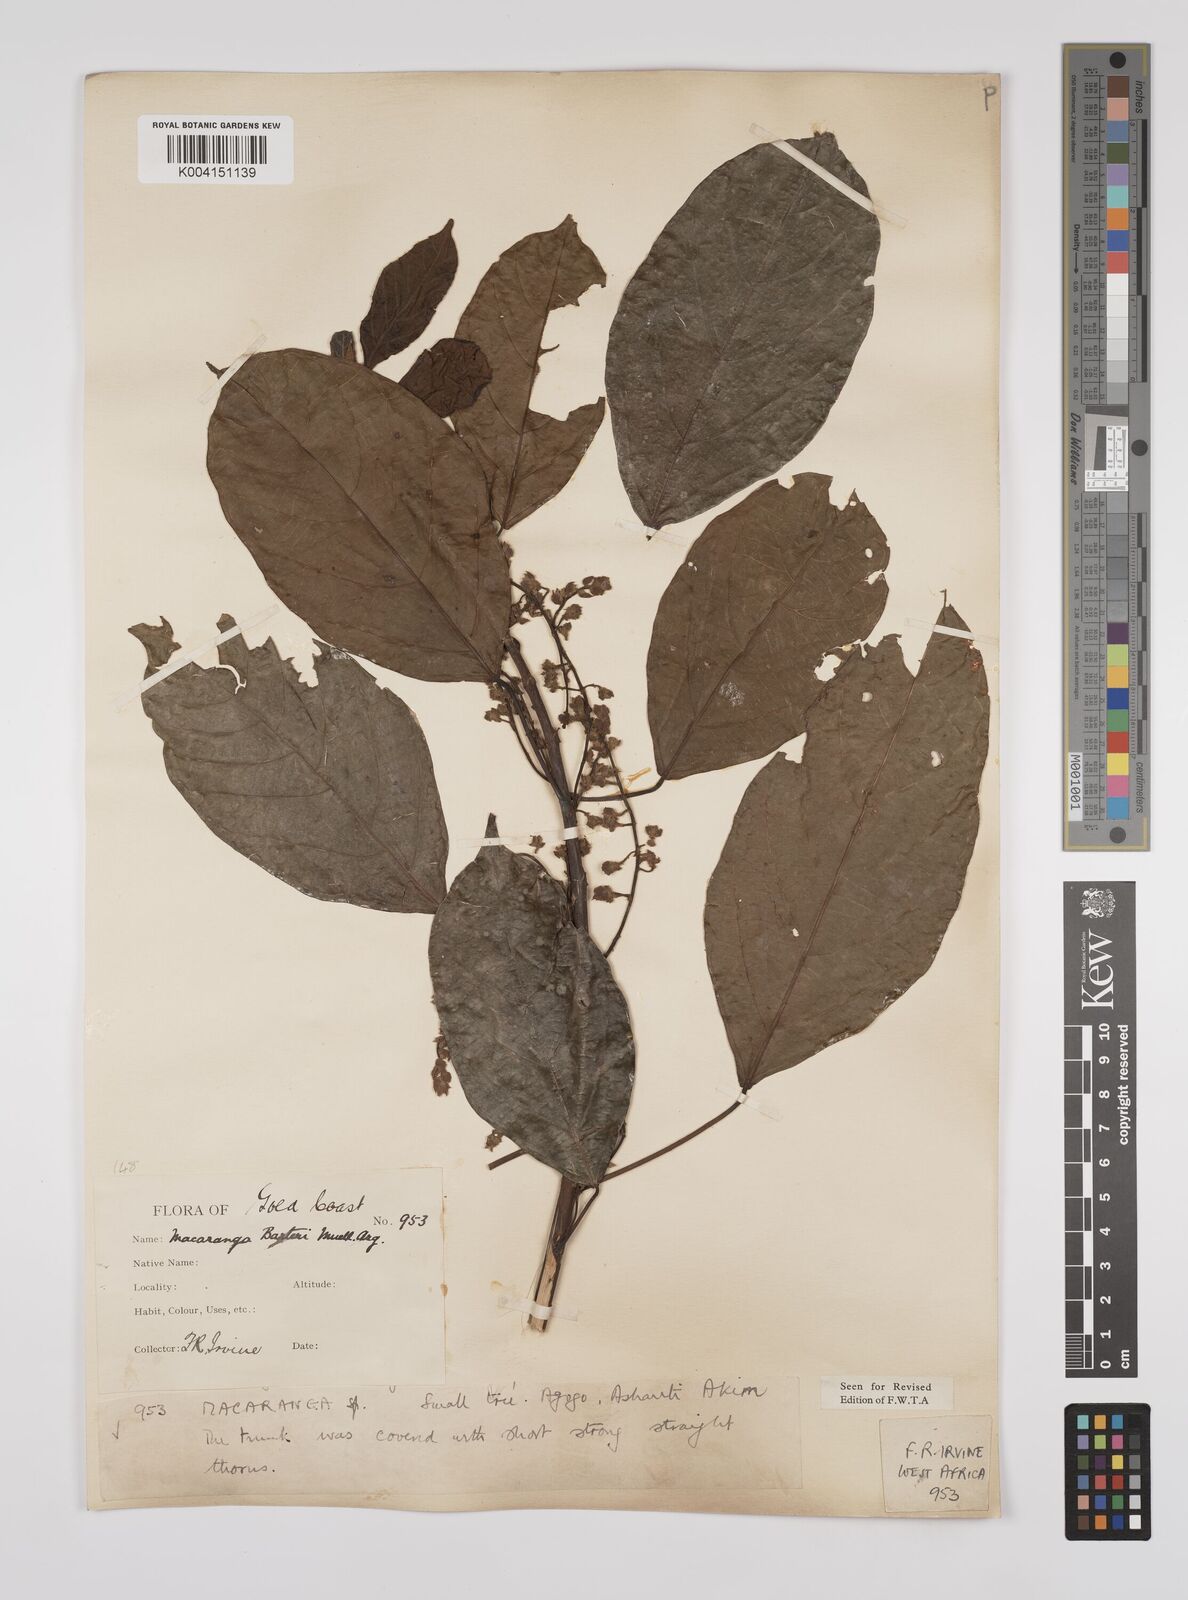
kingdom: Plantae
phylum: Tracheophyta
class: Magnoliopsida
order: Malpighiales
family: Euphorbiaceae
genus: Macaranga
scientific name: Macaranga barteri
